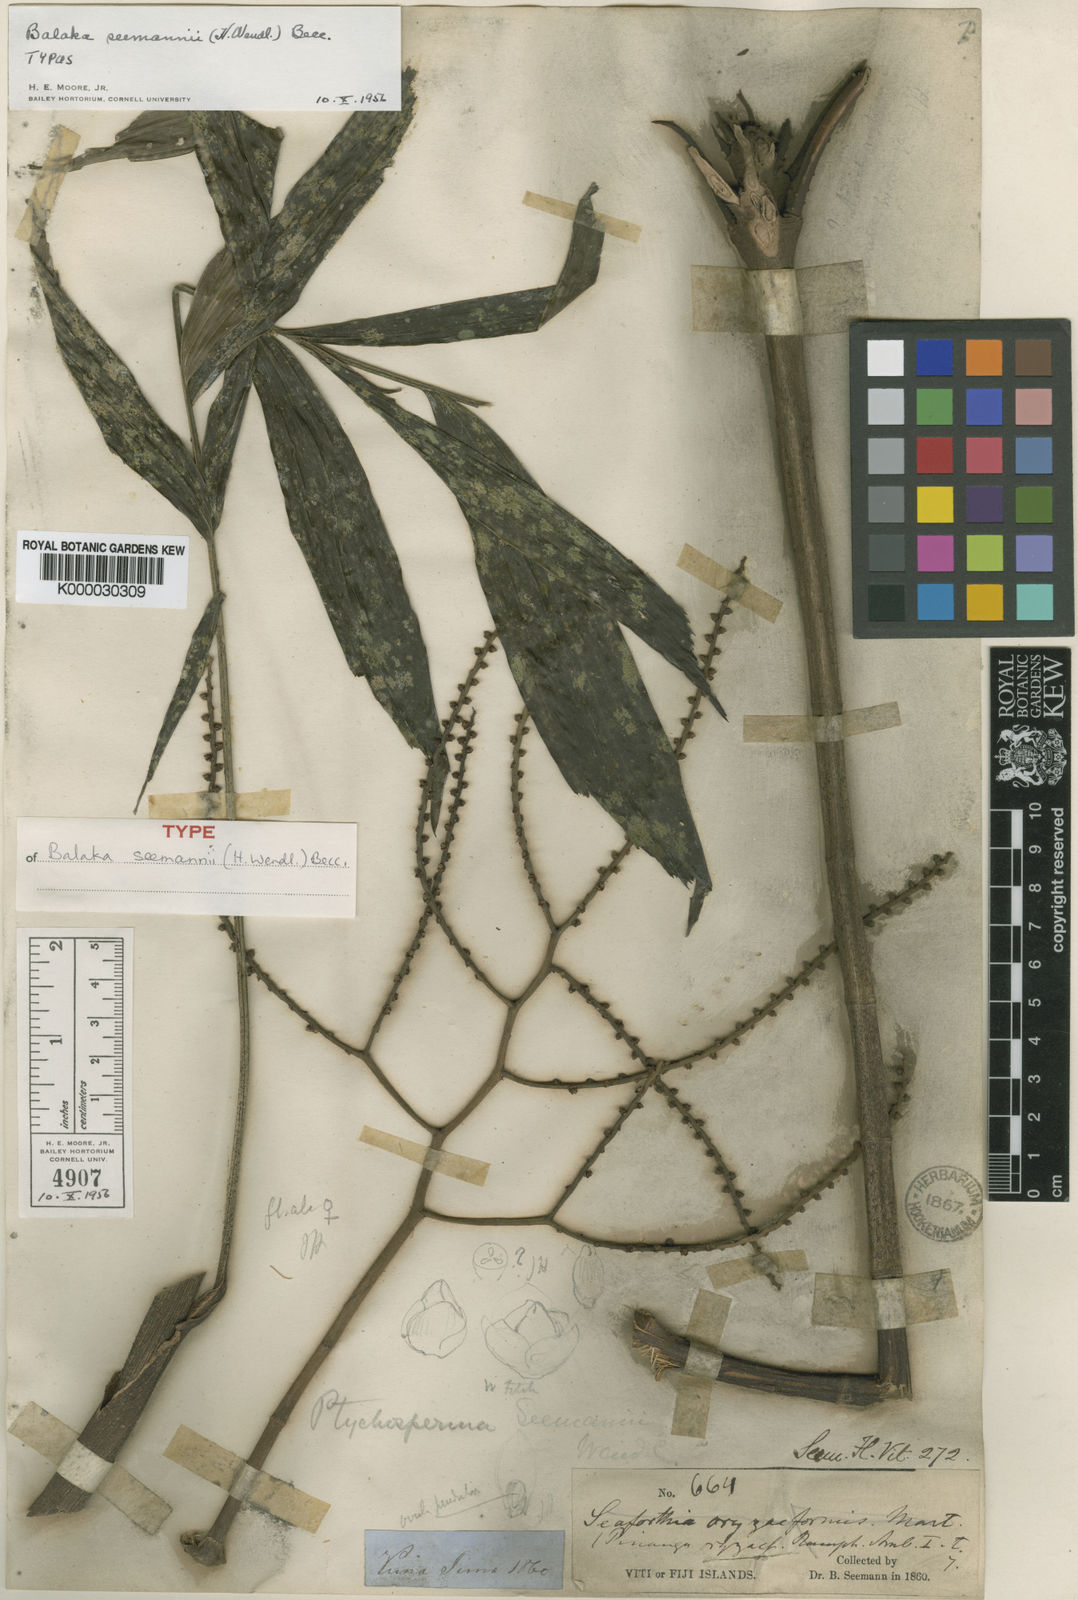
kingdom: Plantae
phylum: Tracheophyta
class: Liliopsida
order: Arecales
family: Arecaceae
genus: Balaka
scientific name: Balaka samoensis
